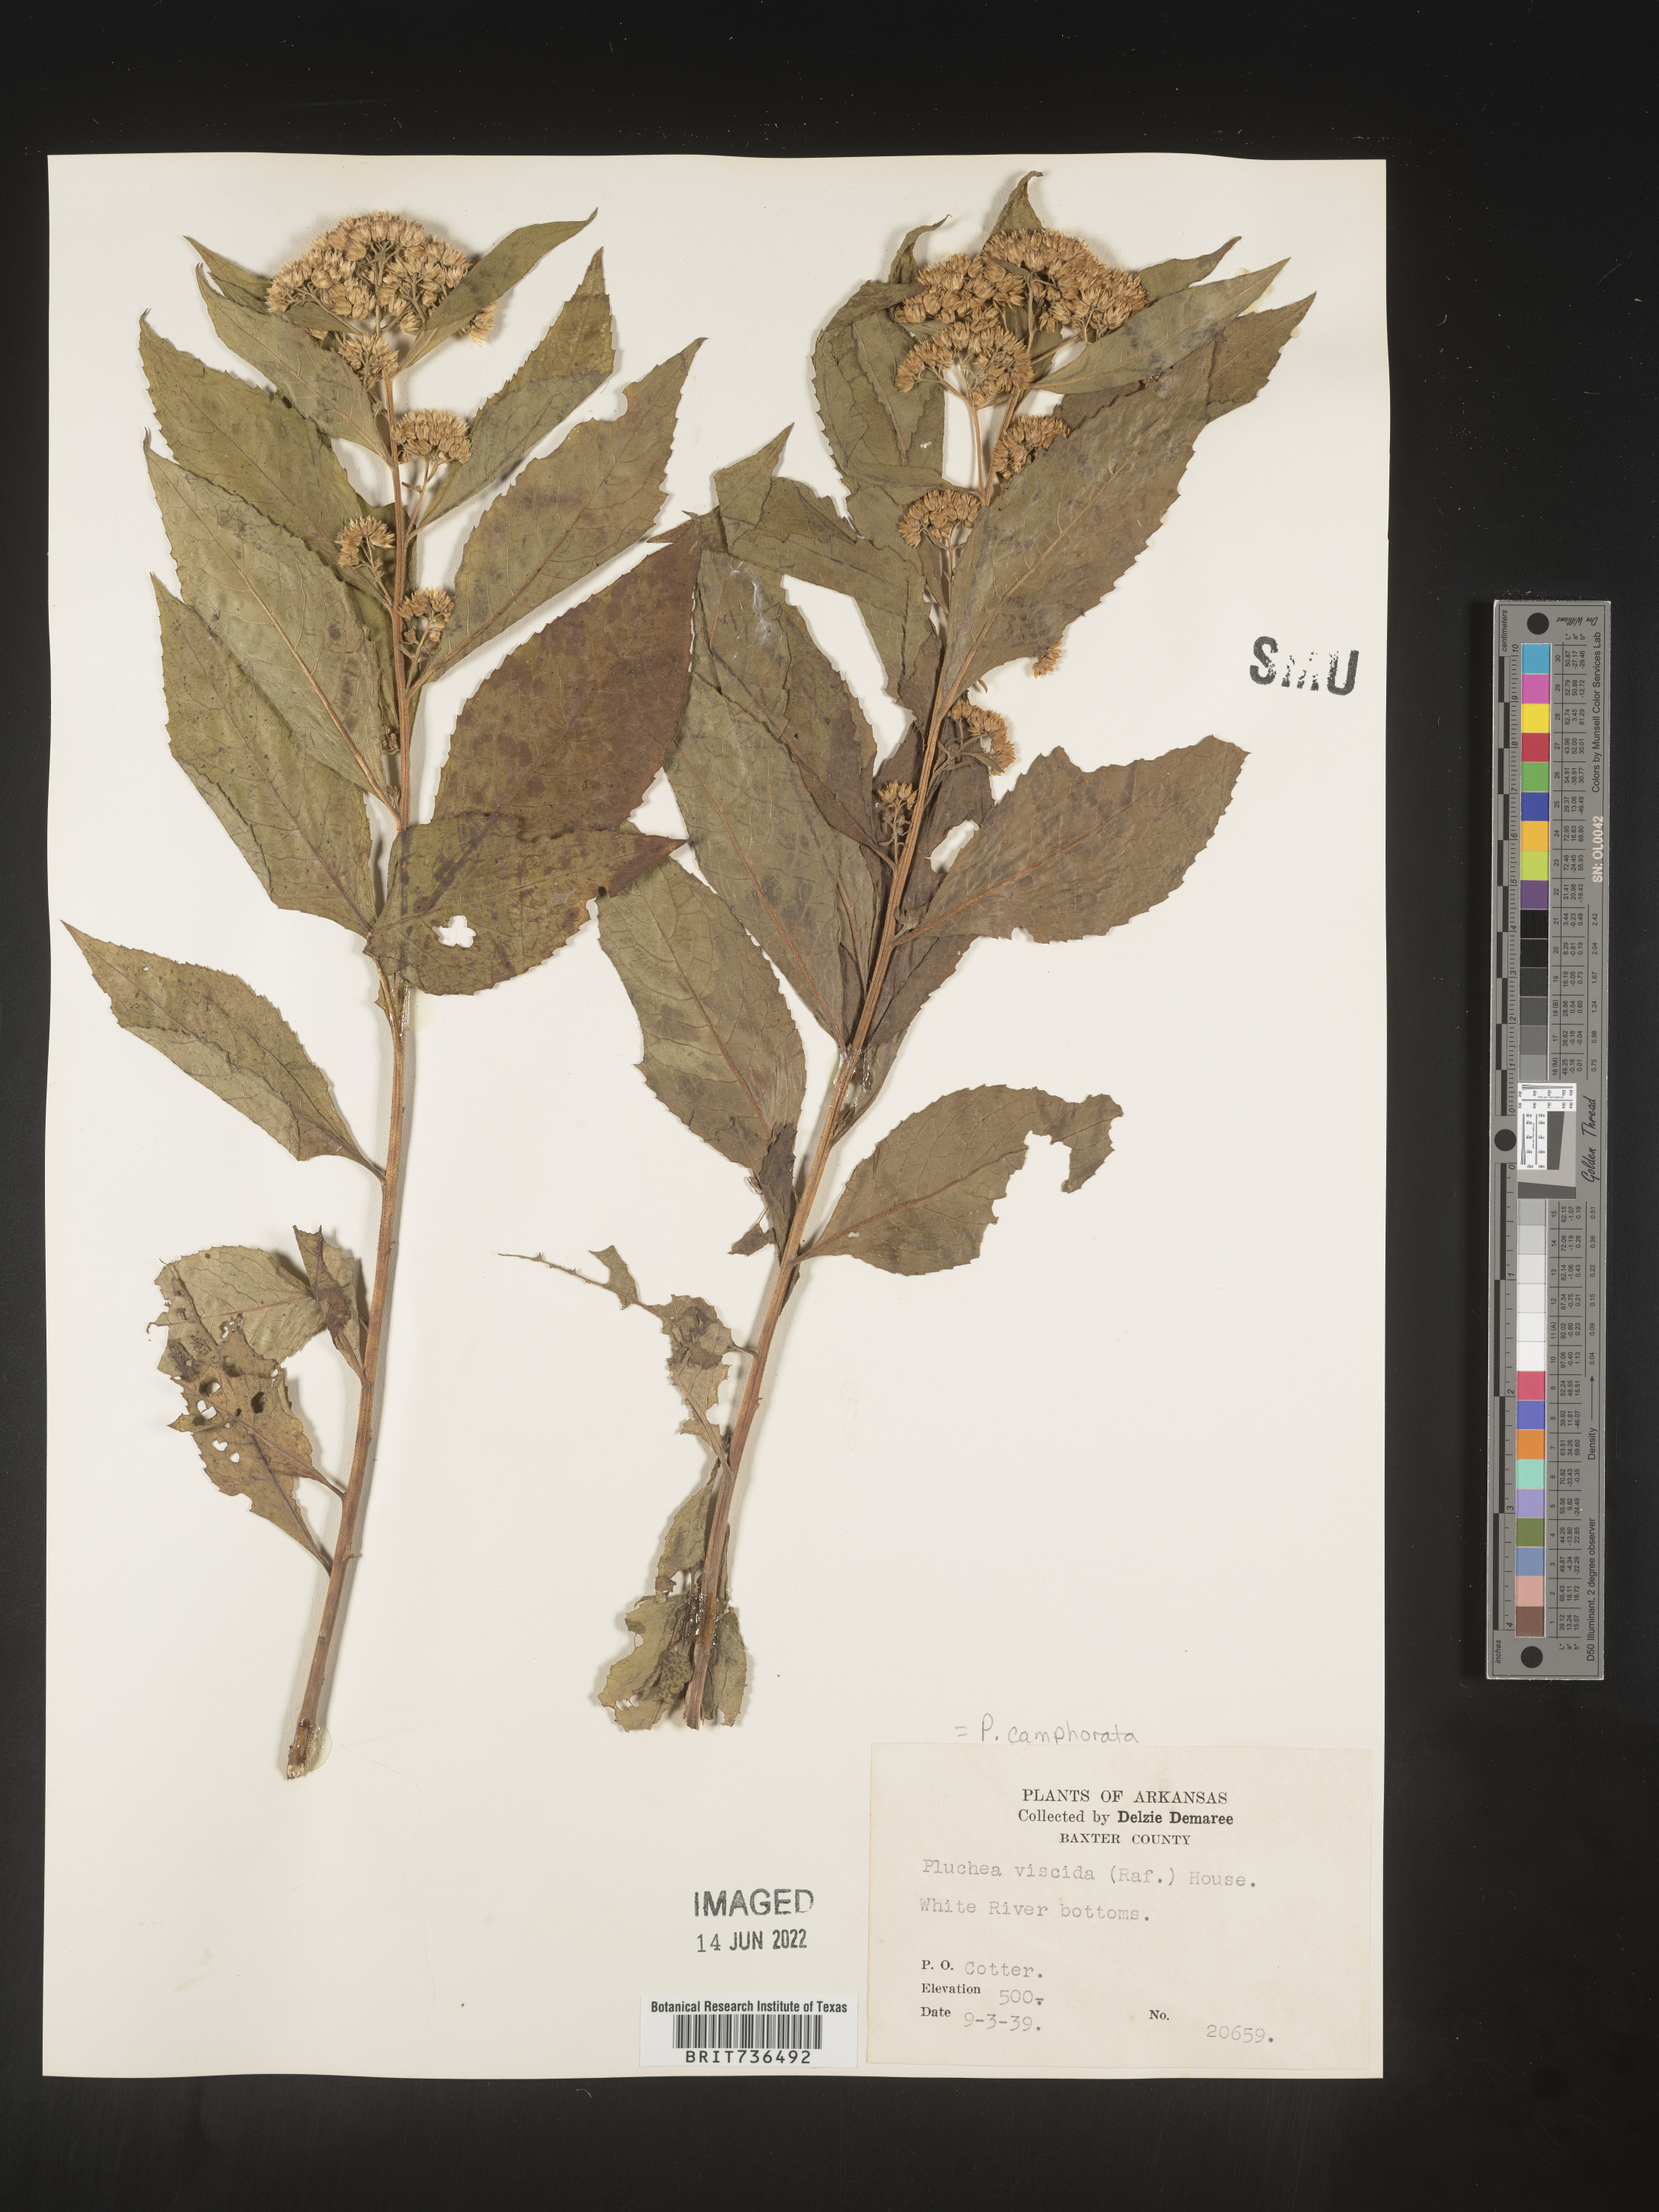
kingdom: Plantae
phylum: Tracheophyta
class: Magnoliopsida
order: Asterales
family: Asteraceae
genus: Pluchea
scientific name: Pluchea camphorata
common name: Camphor pluchea
